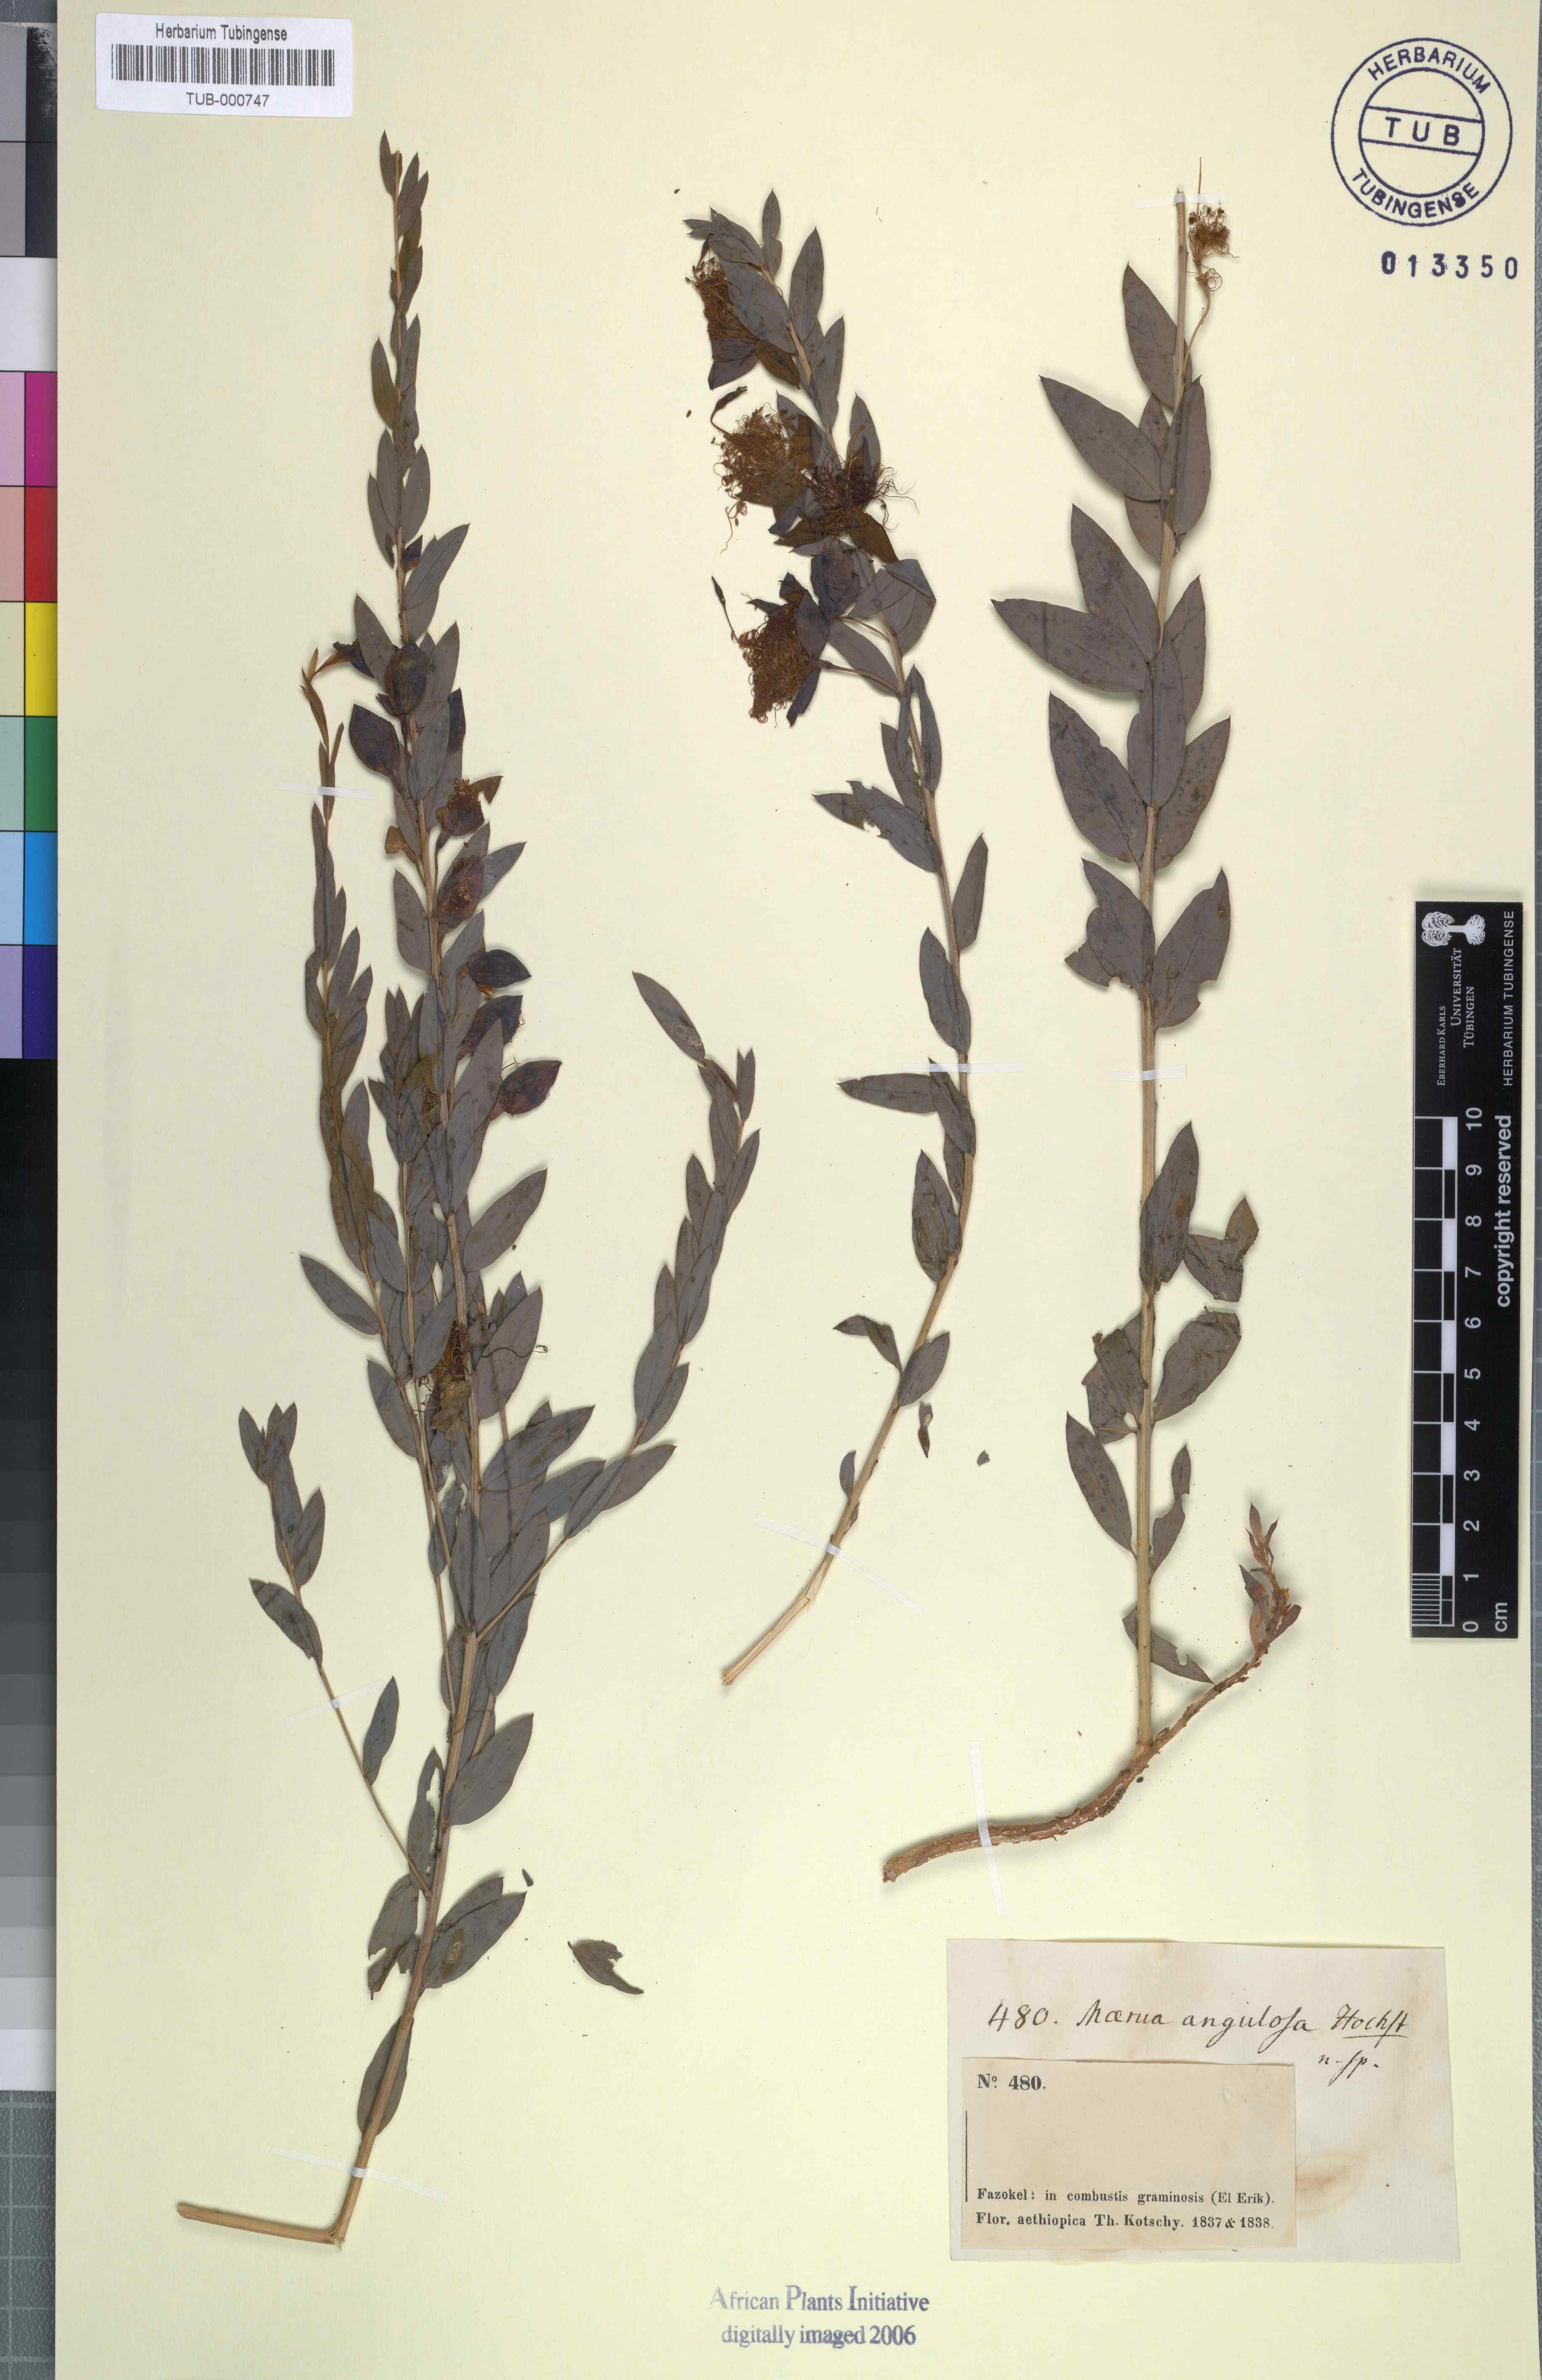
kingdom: Plantae
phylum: Tracheophyta
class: Magnoliopsida
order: Brassicales
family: Capparaceae
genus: Maerua
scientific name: Maerua angolensis
